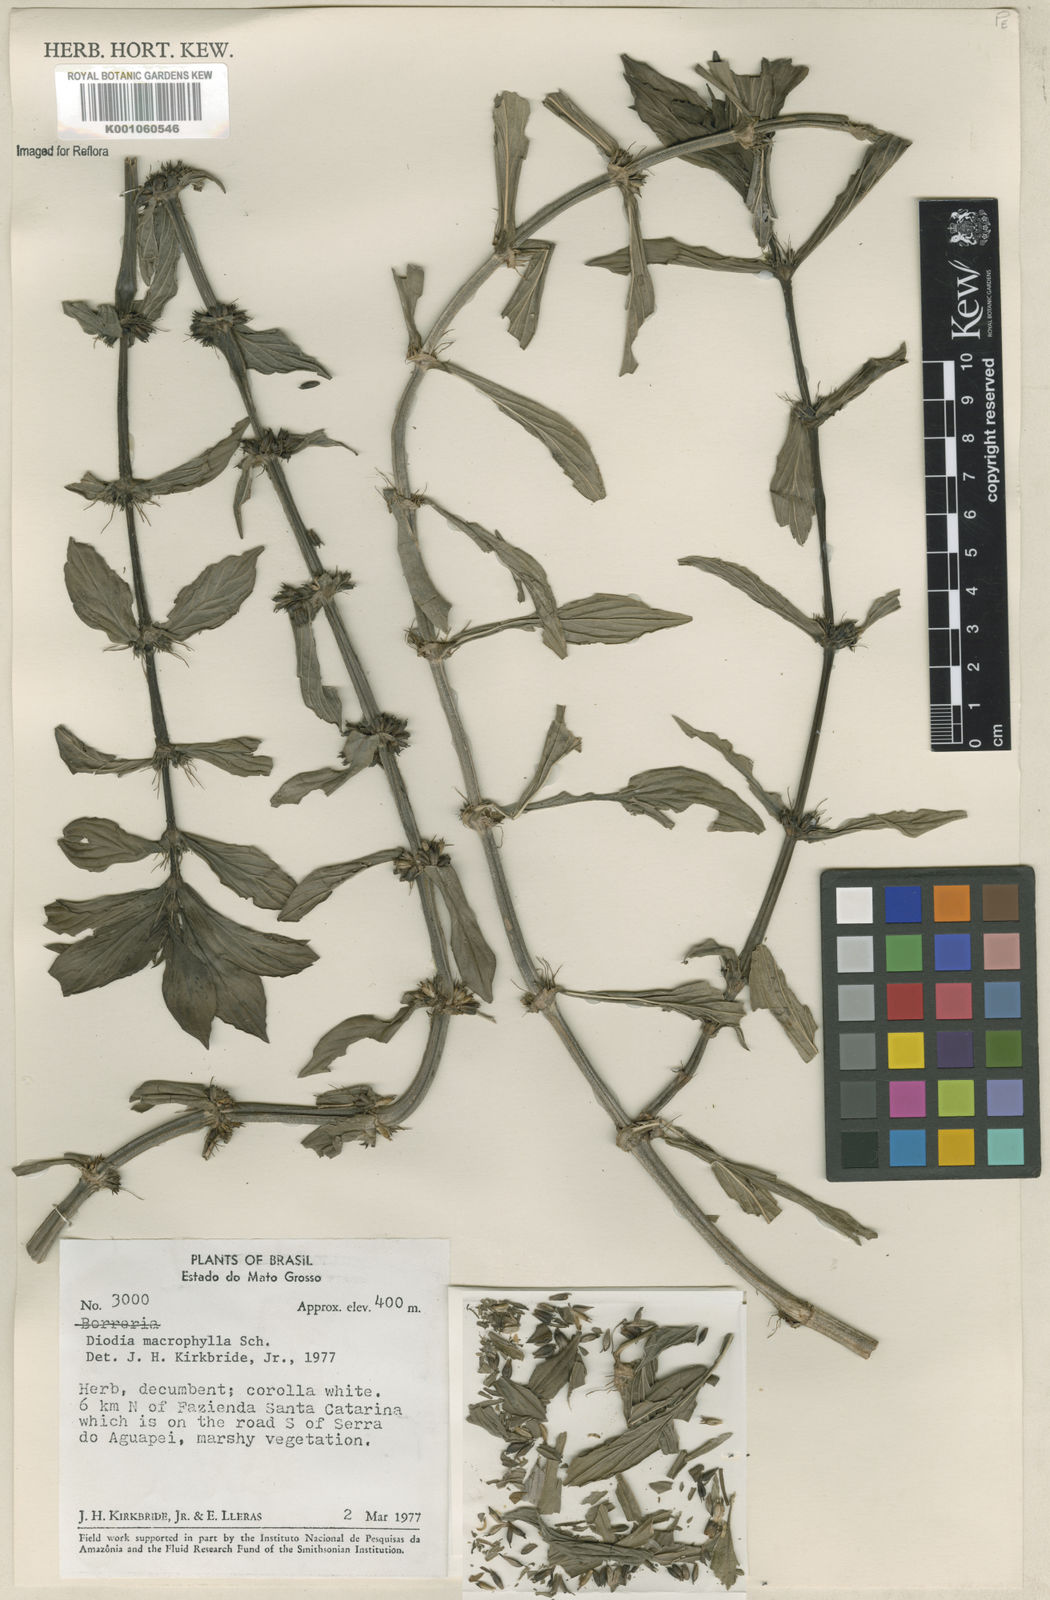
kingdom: Plantae
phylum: Tracheophyta
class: Magnoliopsida
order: Gentianales
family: Rubiaceae
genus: Diodia
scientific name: Diodia macrophylla
